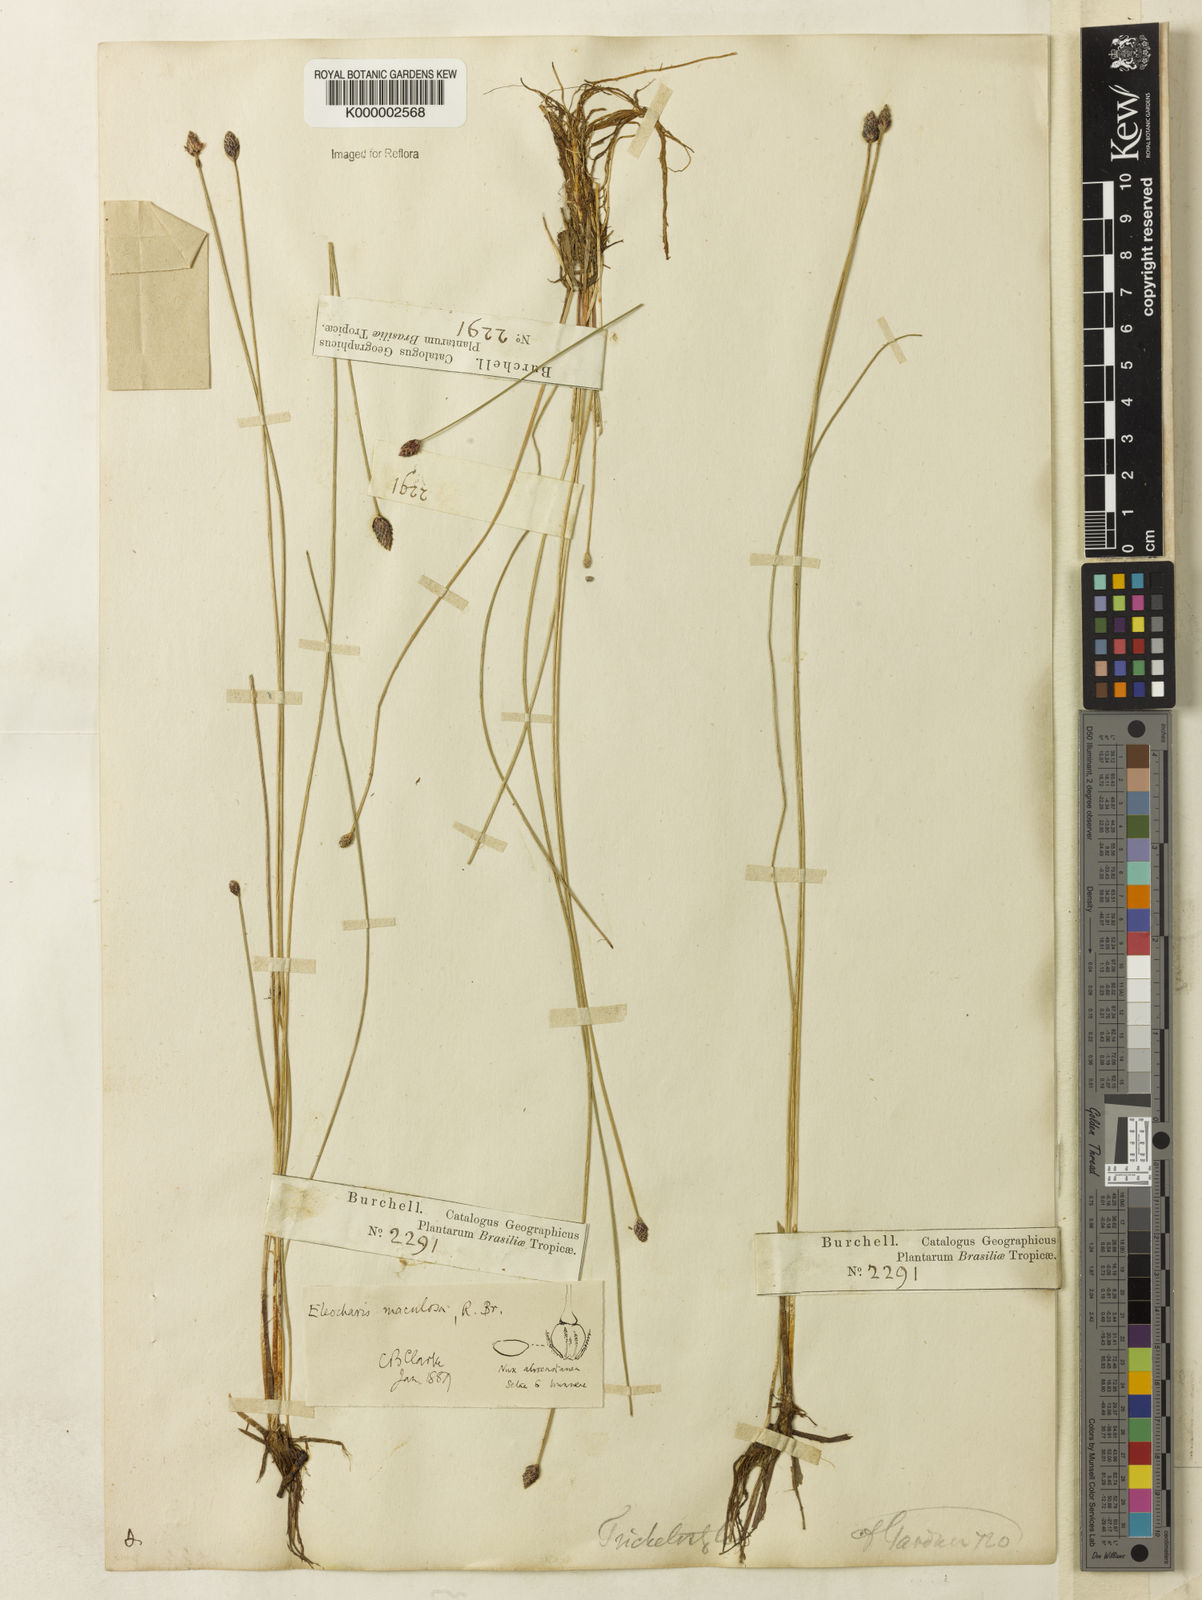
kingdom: Plantae
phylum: Tracheophyta
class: Liliopsida
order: Poales
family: Cyperaceae
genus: Eleocharis
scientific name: Eleocharis maculosa
